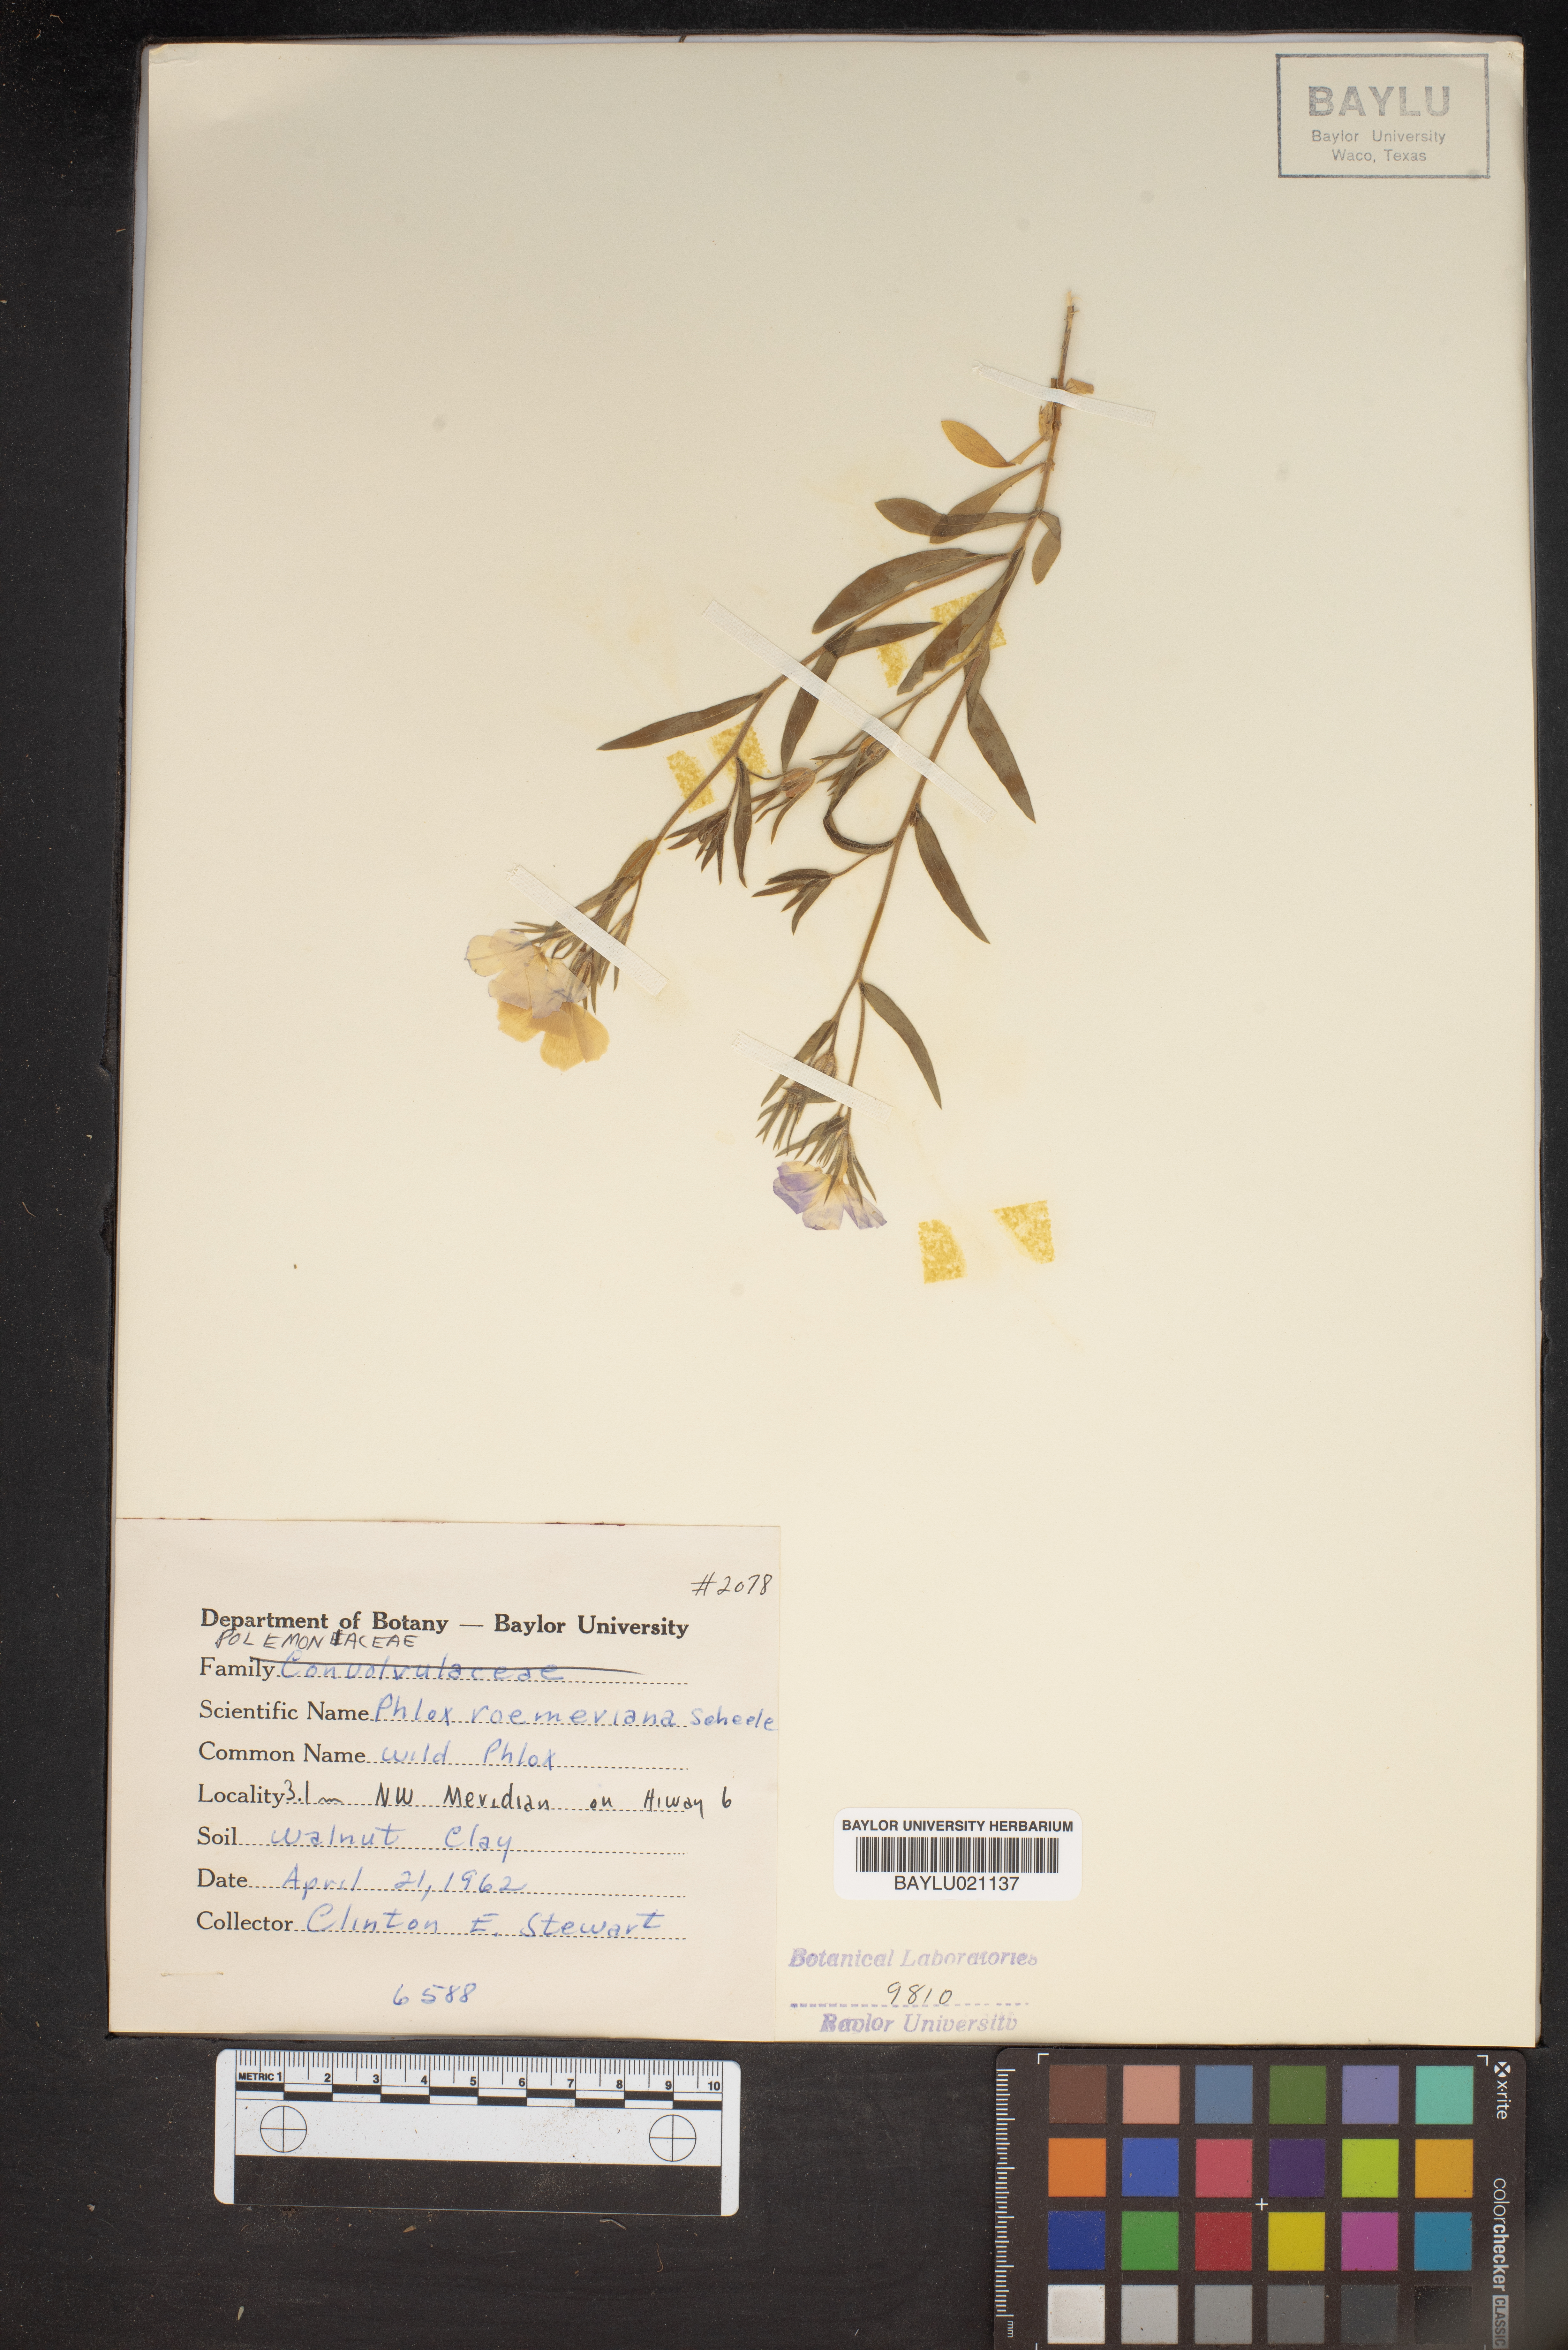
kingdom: Plantae
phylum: Tracheophyta
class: Magnoliopsida
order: Ericales
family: Polemoniaceae
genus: Phlox
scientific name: Phlox roemeriana
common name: Roemer's phlox
